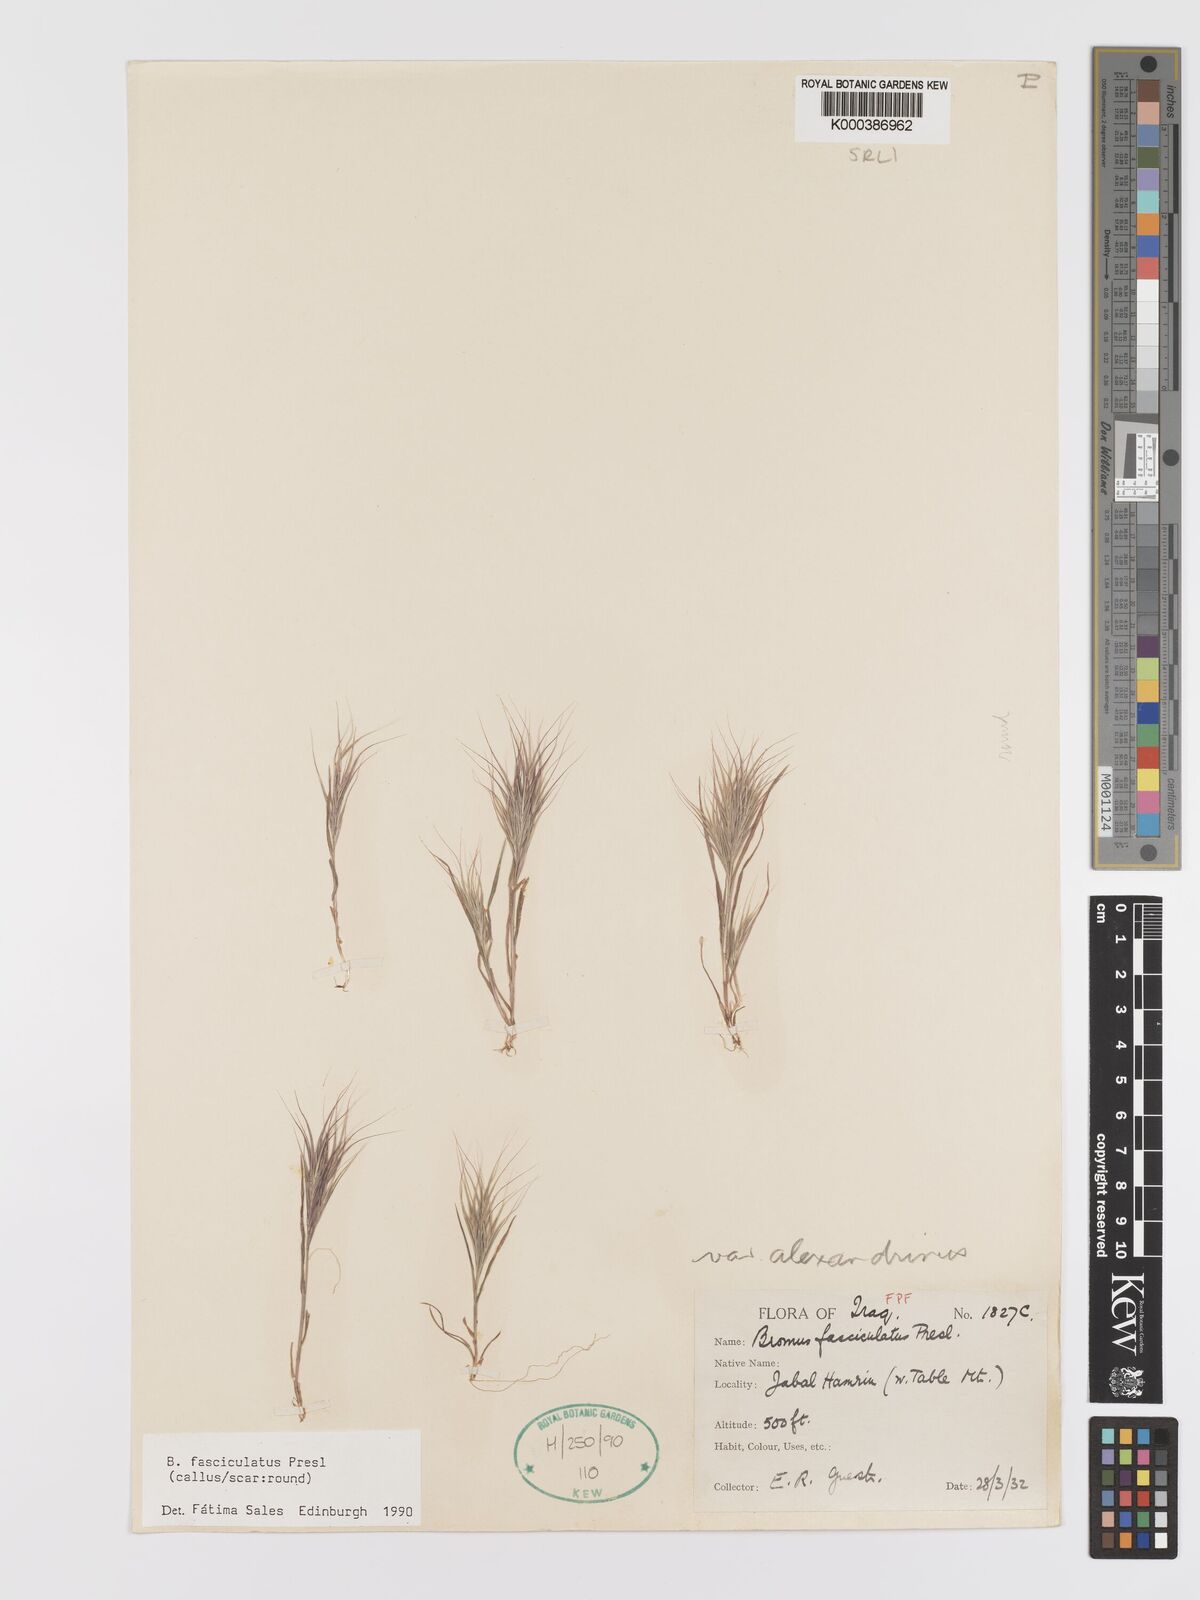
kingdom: Plantae
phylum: Tracheophyta
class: Liliopsida
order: Poales
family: Poaceae
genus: Bromus
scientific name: Bromus fasciculatus
